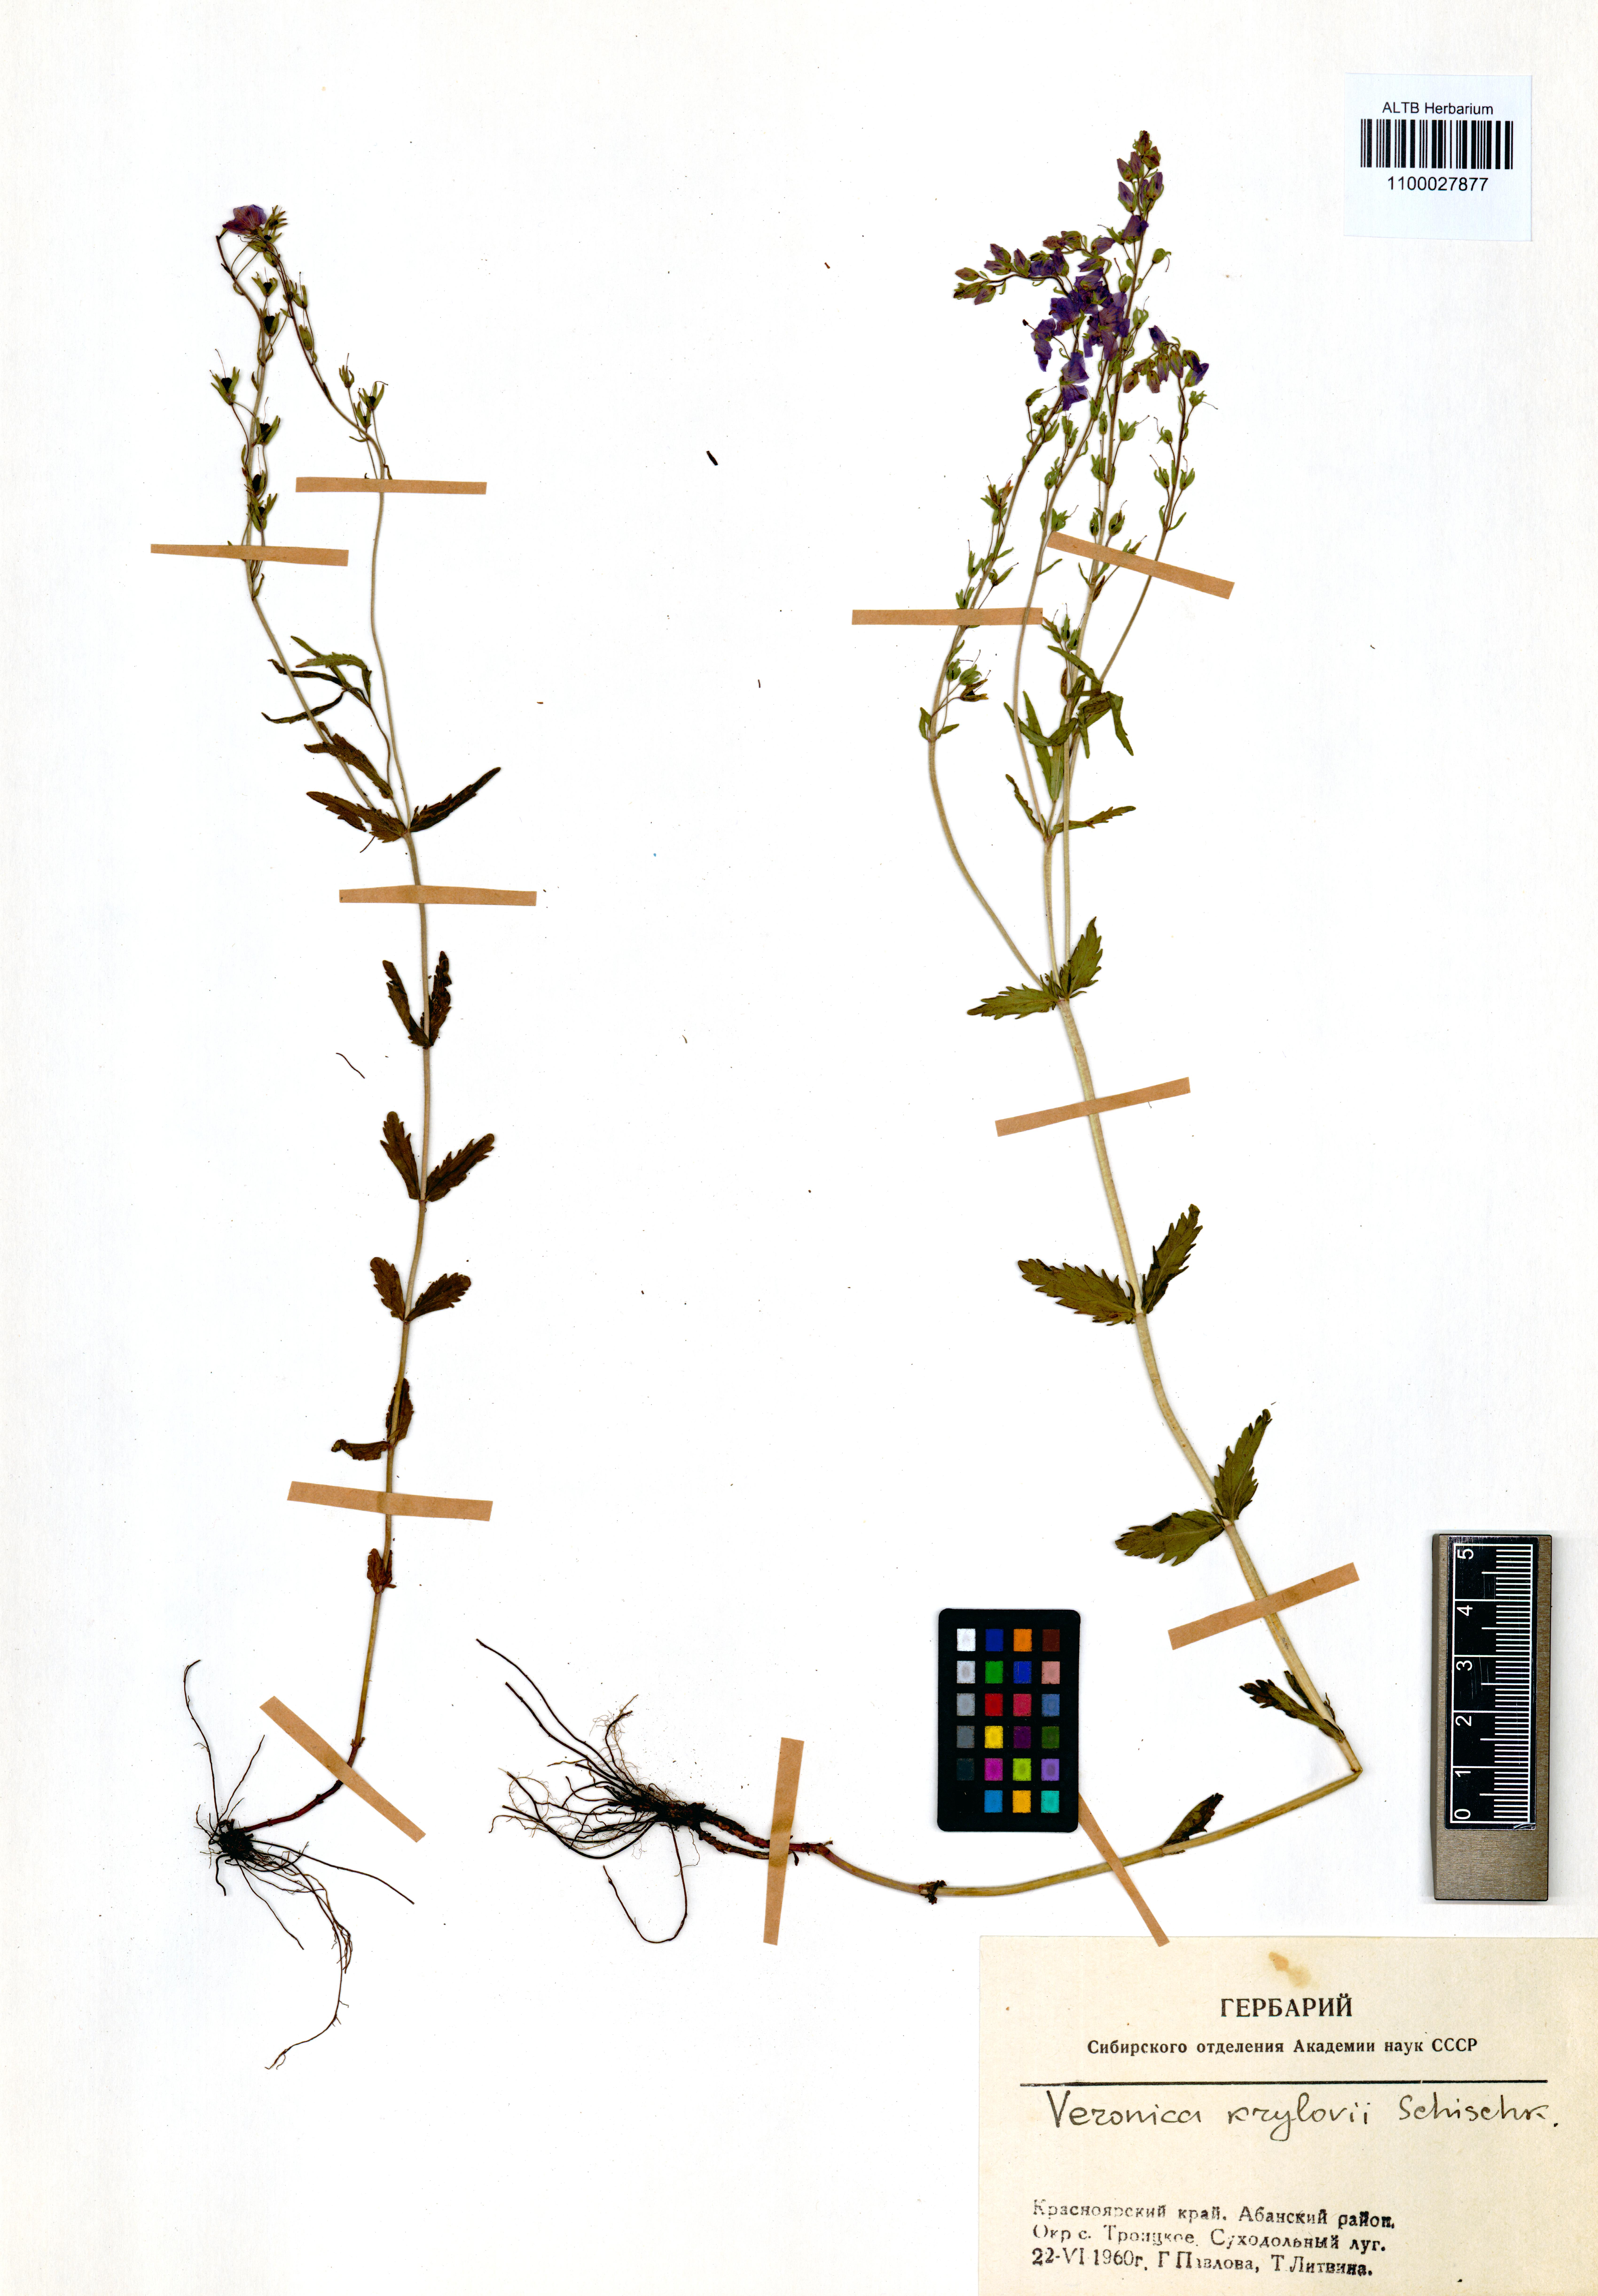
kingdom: Plantae
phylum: Tracheophyta
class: Magnoliopsida
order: Lamiales
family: Plantaginaceae
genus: Veronica
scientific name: Veronica krylovii
